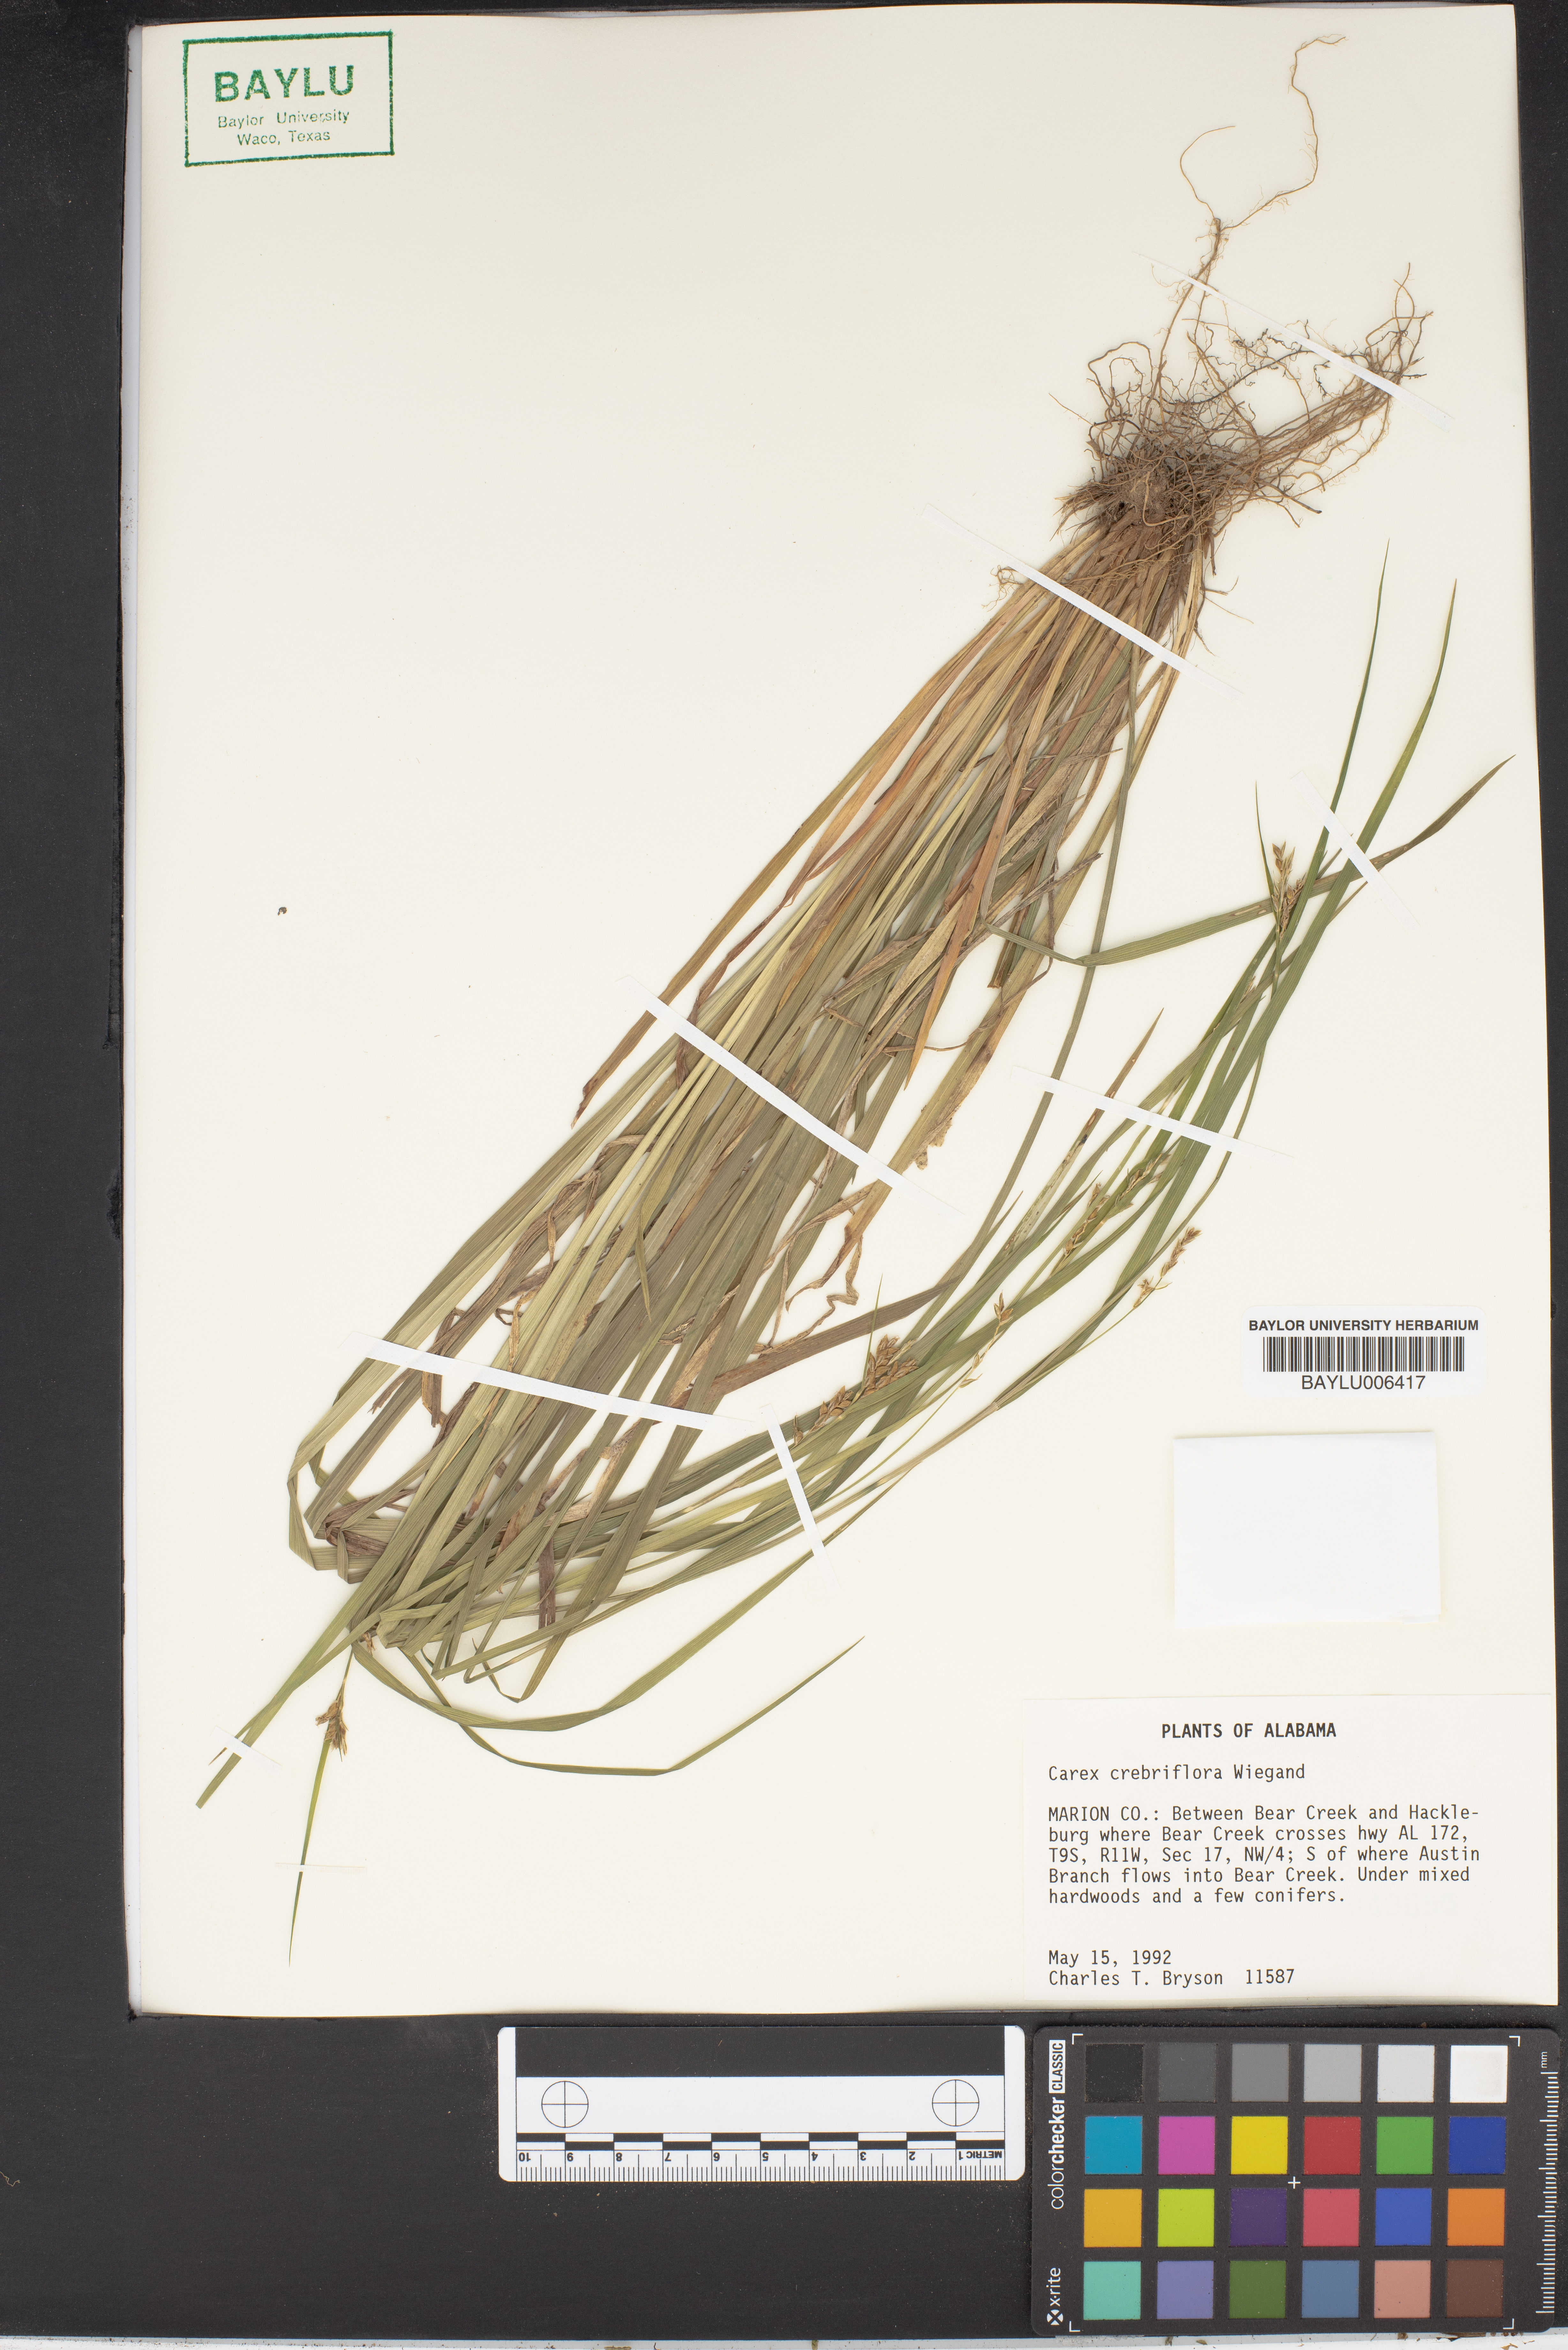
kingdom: Plantae
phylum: Tracheophyta
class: Liliopsida
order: Poales
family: Cyperaceae
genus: Carex
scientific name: Carex crebriflora
